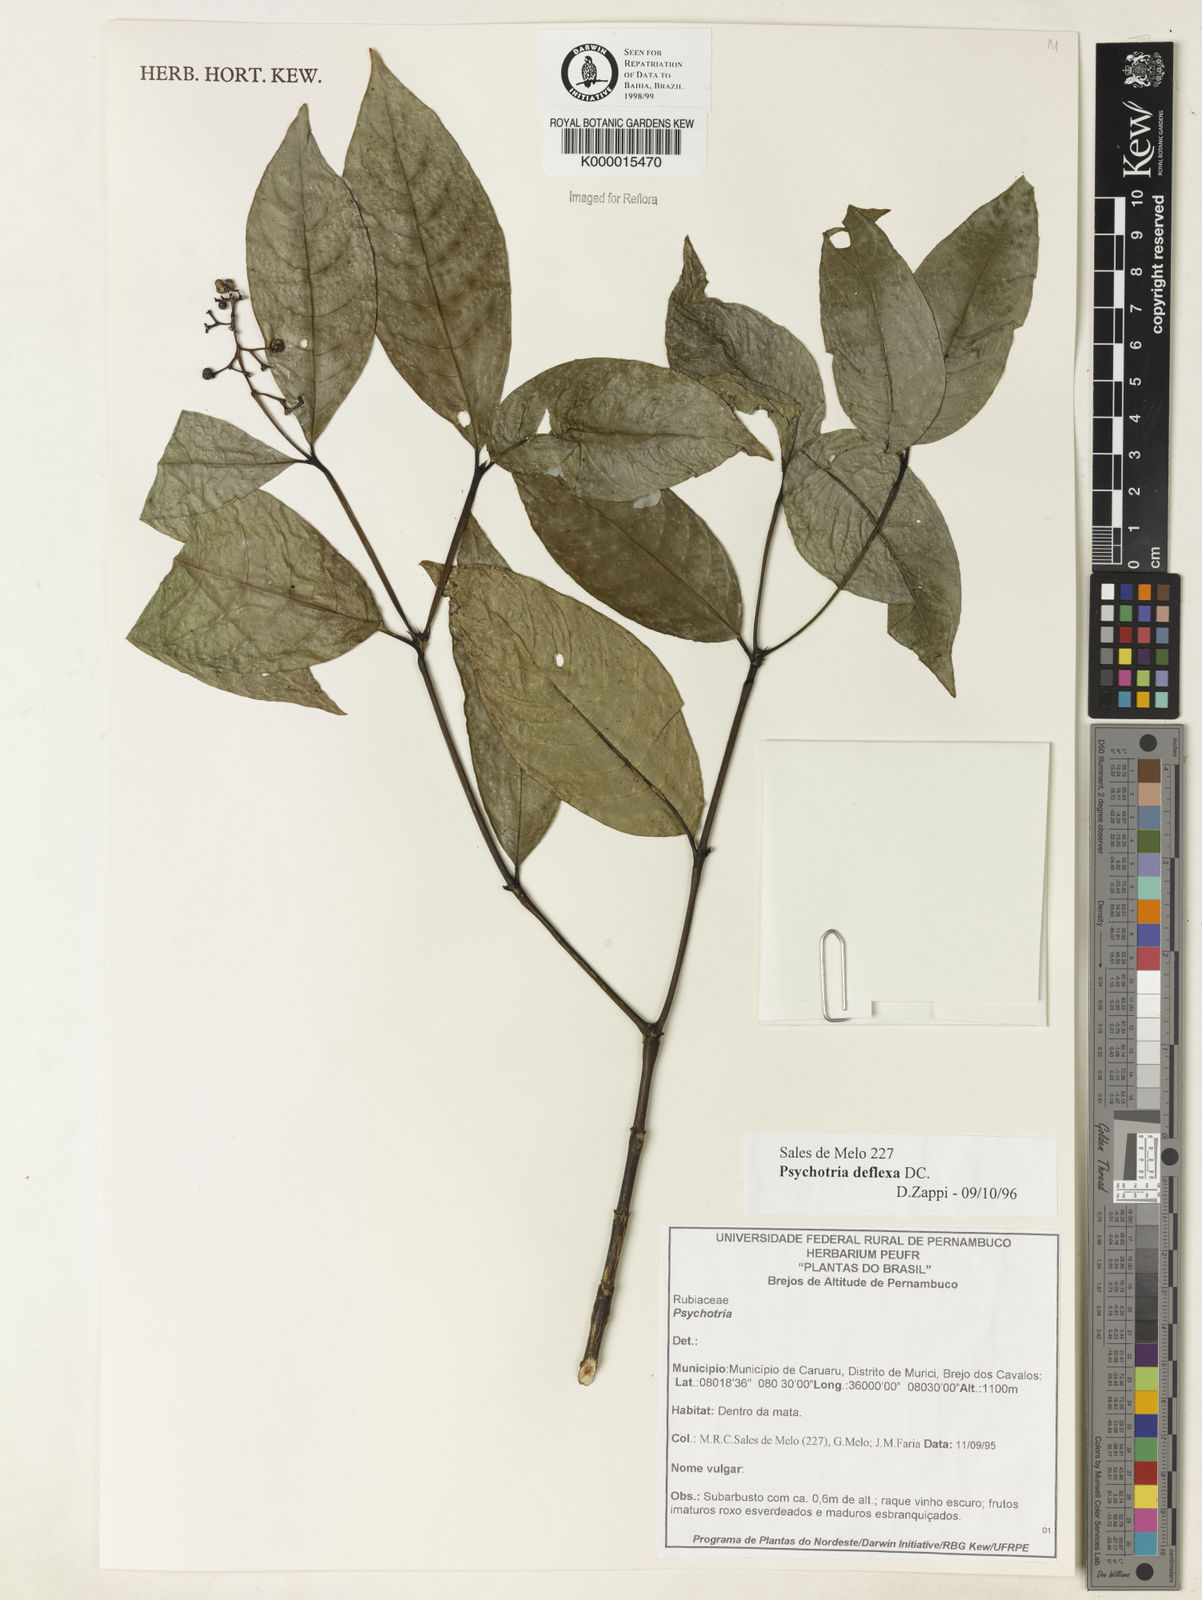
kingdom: Plantae
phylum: Tracheophyta
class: Magnoliopsida
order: Gentianales
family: Rubiaceae
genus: Palicourea
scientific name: Palicourea deflexa
